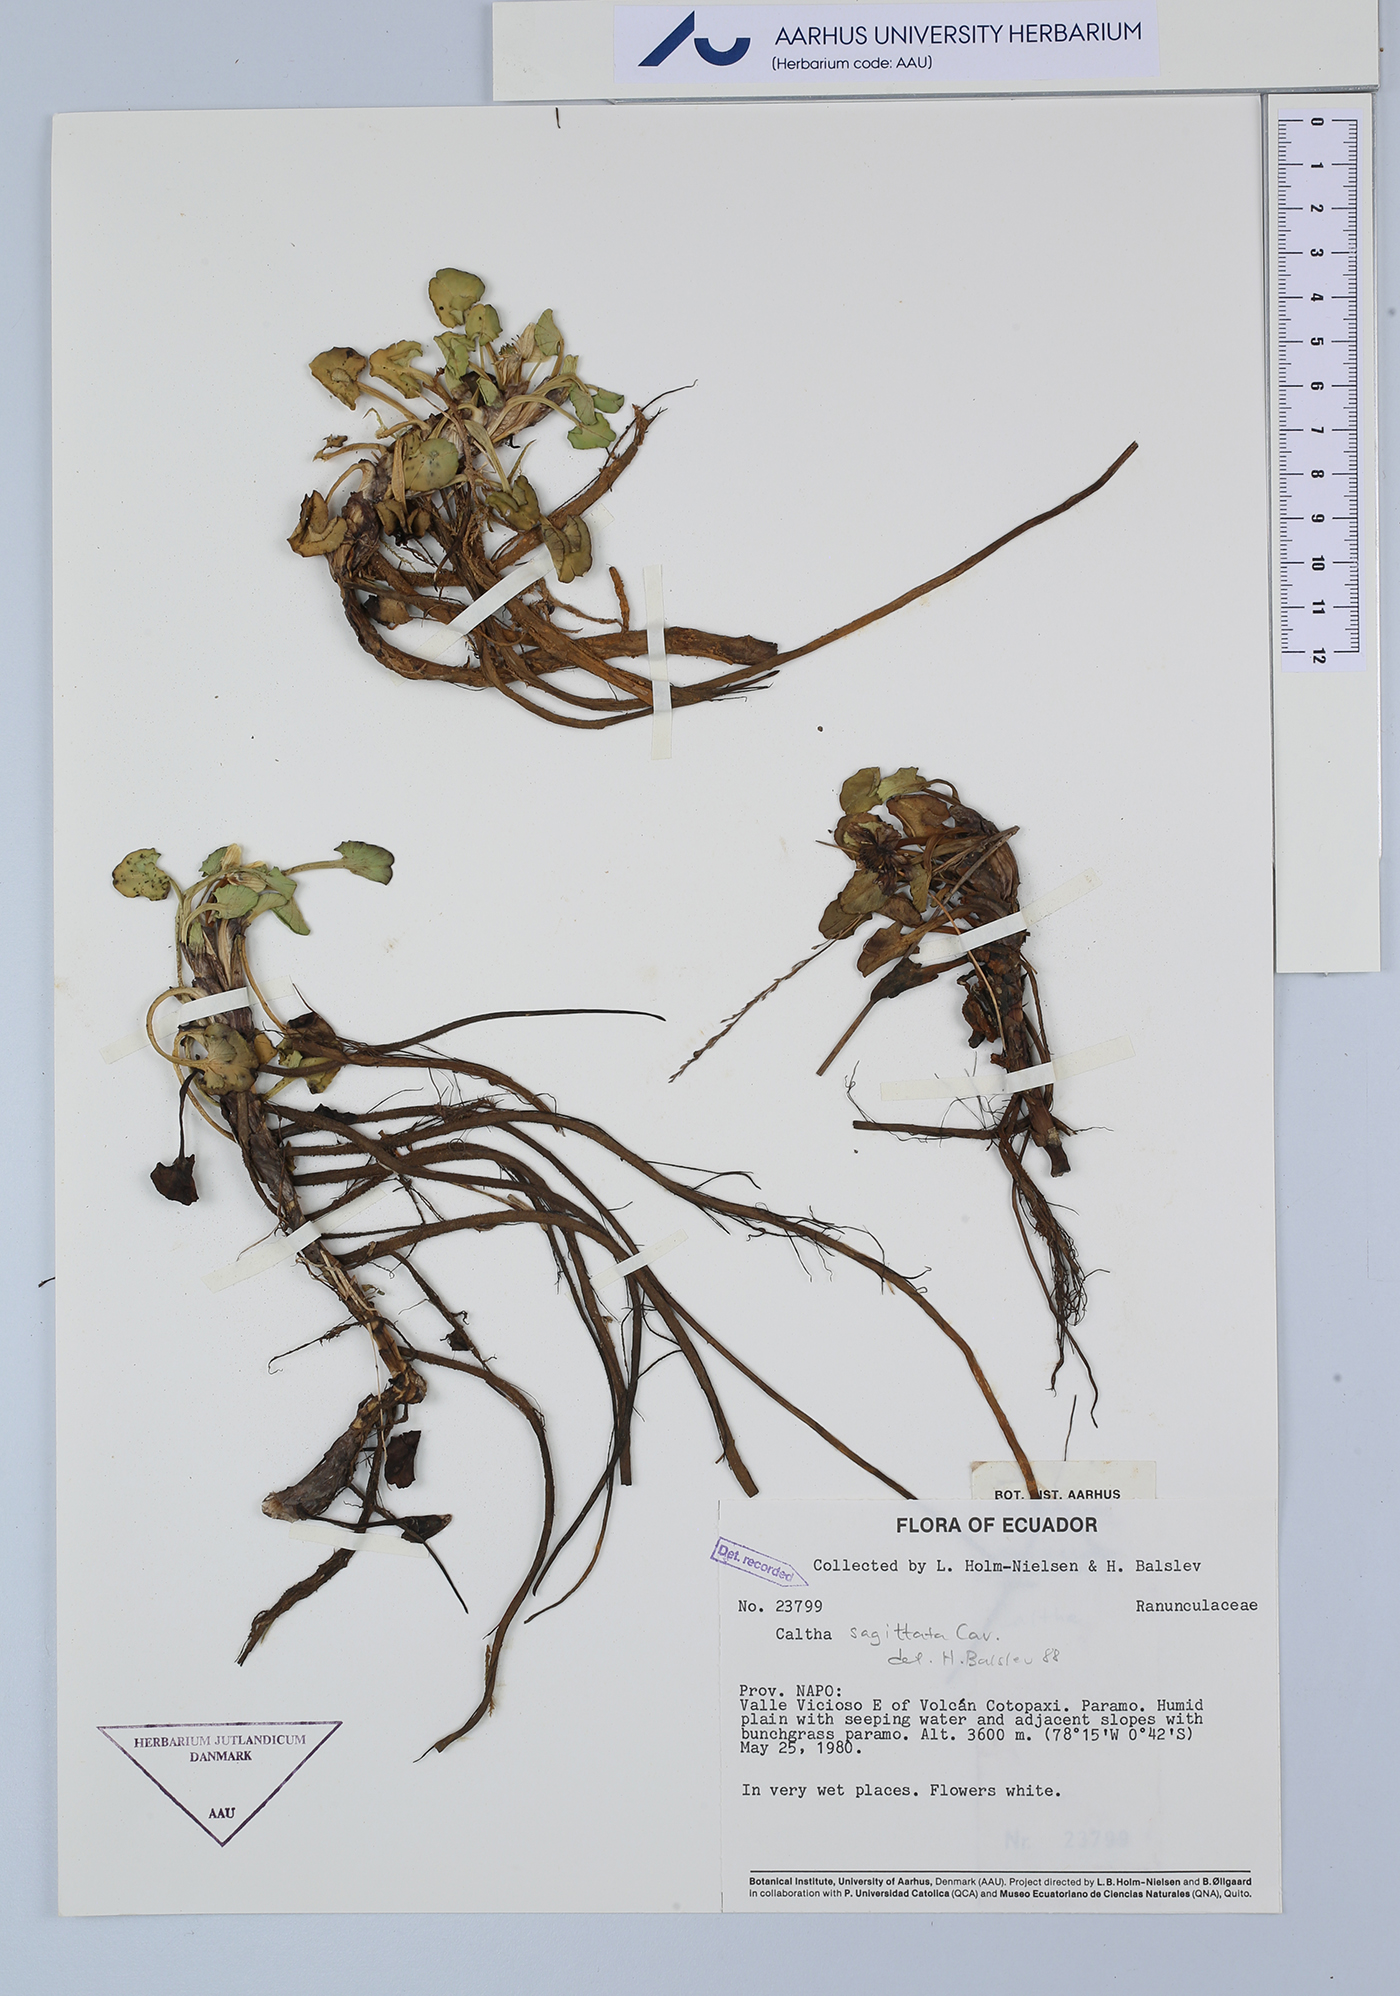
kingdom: Plantae
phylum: Tracheophyta
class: Magnoliopsida
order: Ranunculales
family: Ranunculaceae
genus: Caltha
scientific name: Caltha sagittata
